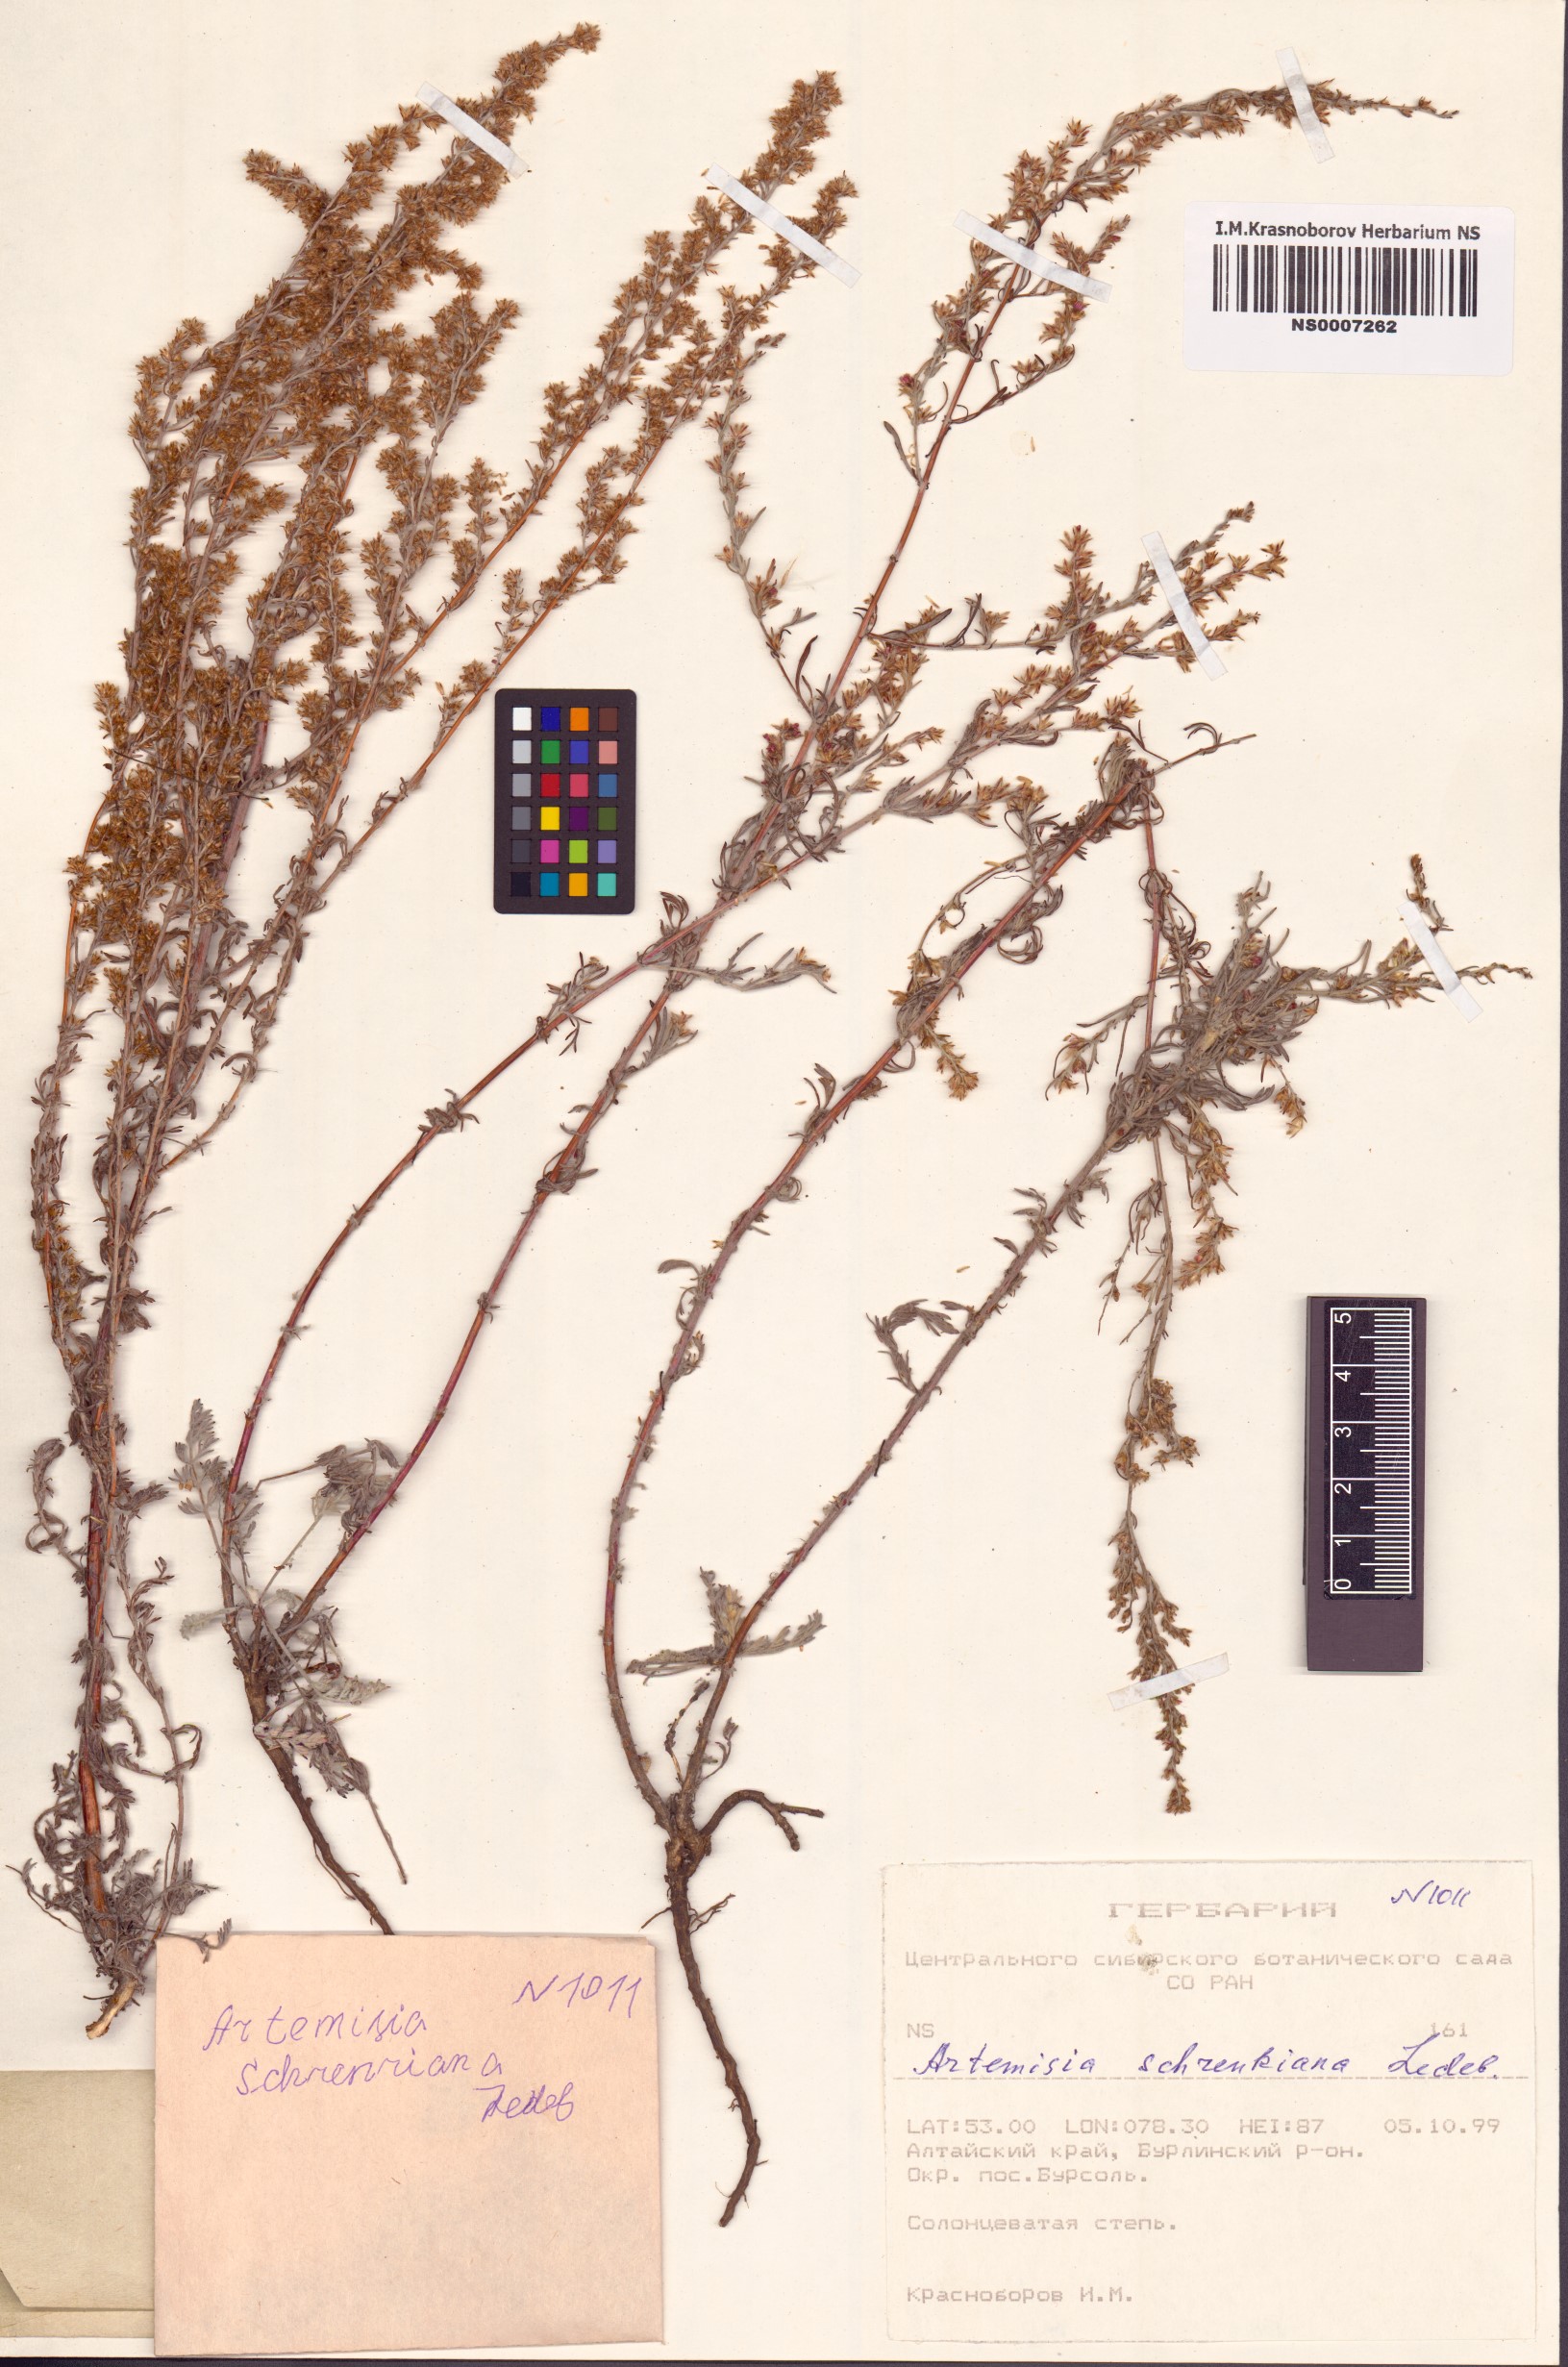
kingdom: Plantae
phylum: Tracheophyta
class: Magnoliopsida
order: Asterales
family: Asteraceae
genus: Artemisia
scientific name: Artemisia schrenkiana
